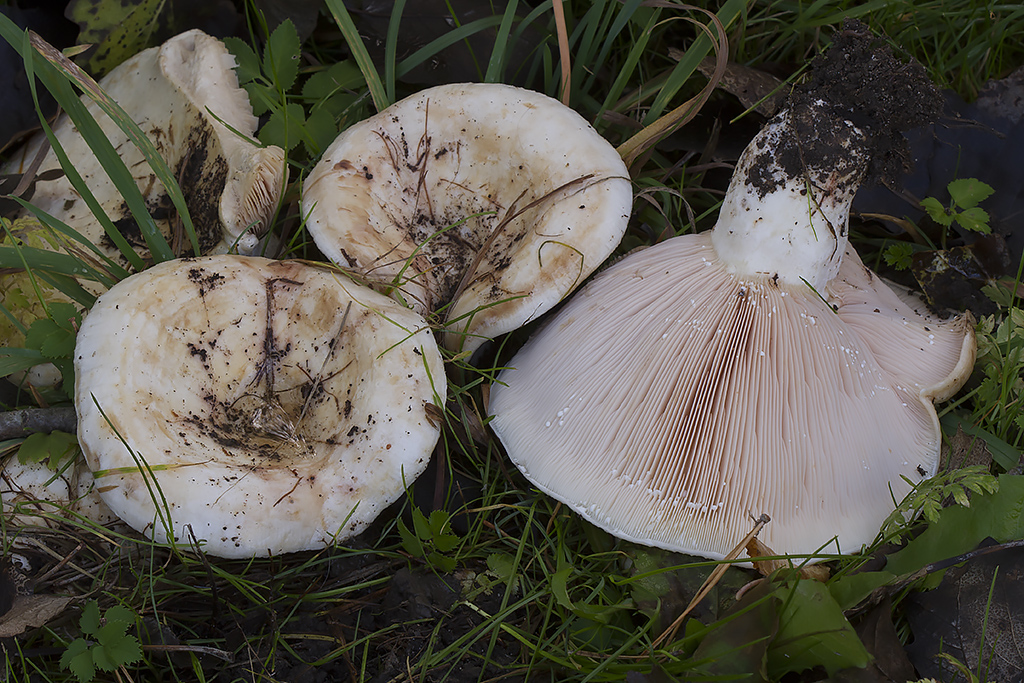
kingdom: Fungi
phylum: Basidiomycota
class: Agaricomycetes
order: Russulales
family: Russulaceae
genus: Lactarius
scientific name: Lactarius controversus
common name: rosabladet mælkehat
